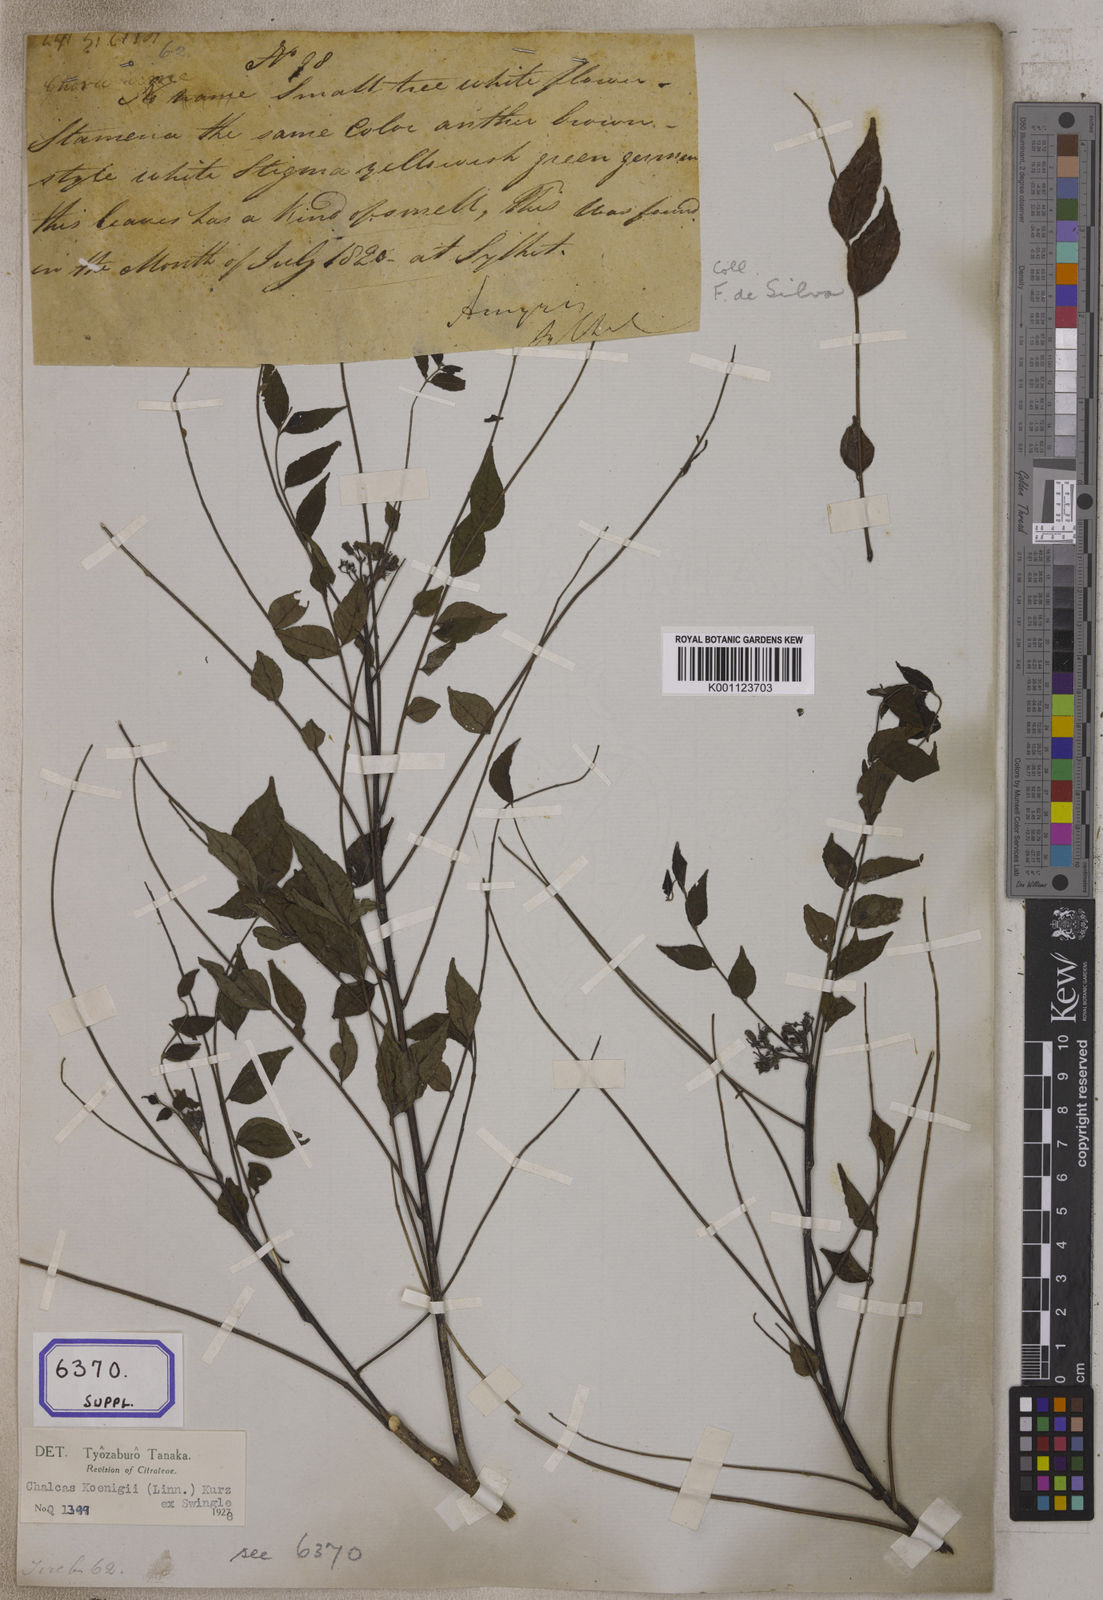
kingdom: Plantae
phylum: Tracheophyta
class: Magnoliopsida
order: Sapindales
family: Rutaceae
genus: Murraya
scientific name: Murraya koenigii
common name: Curry-plant
